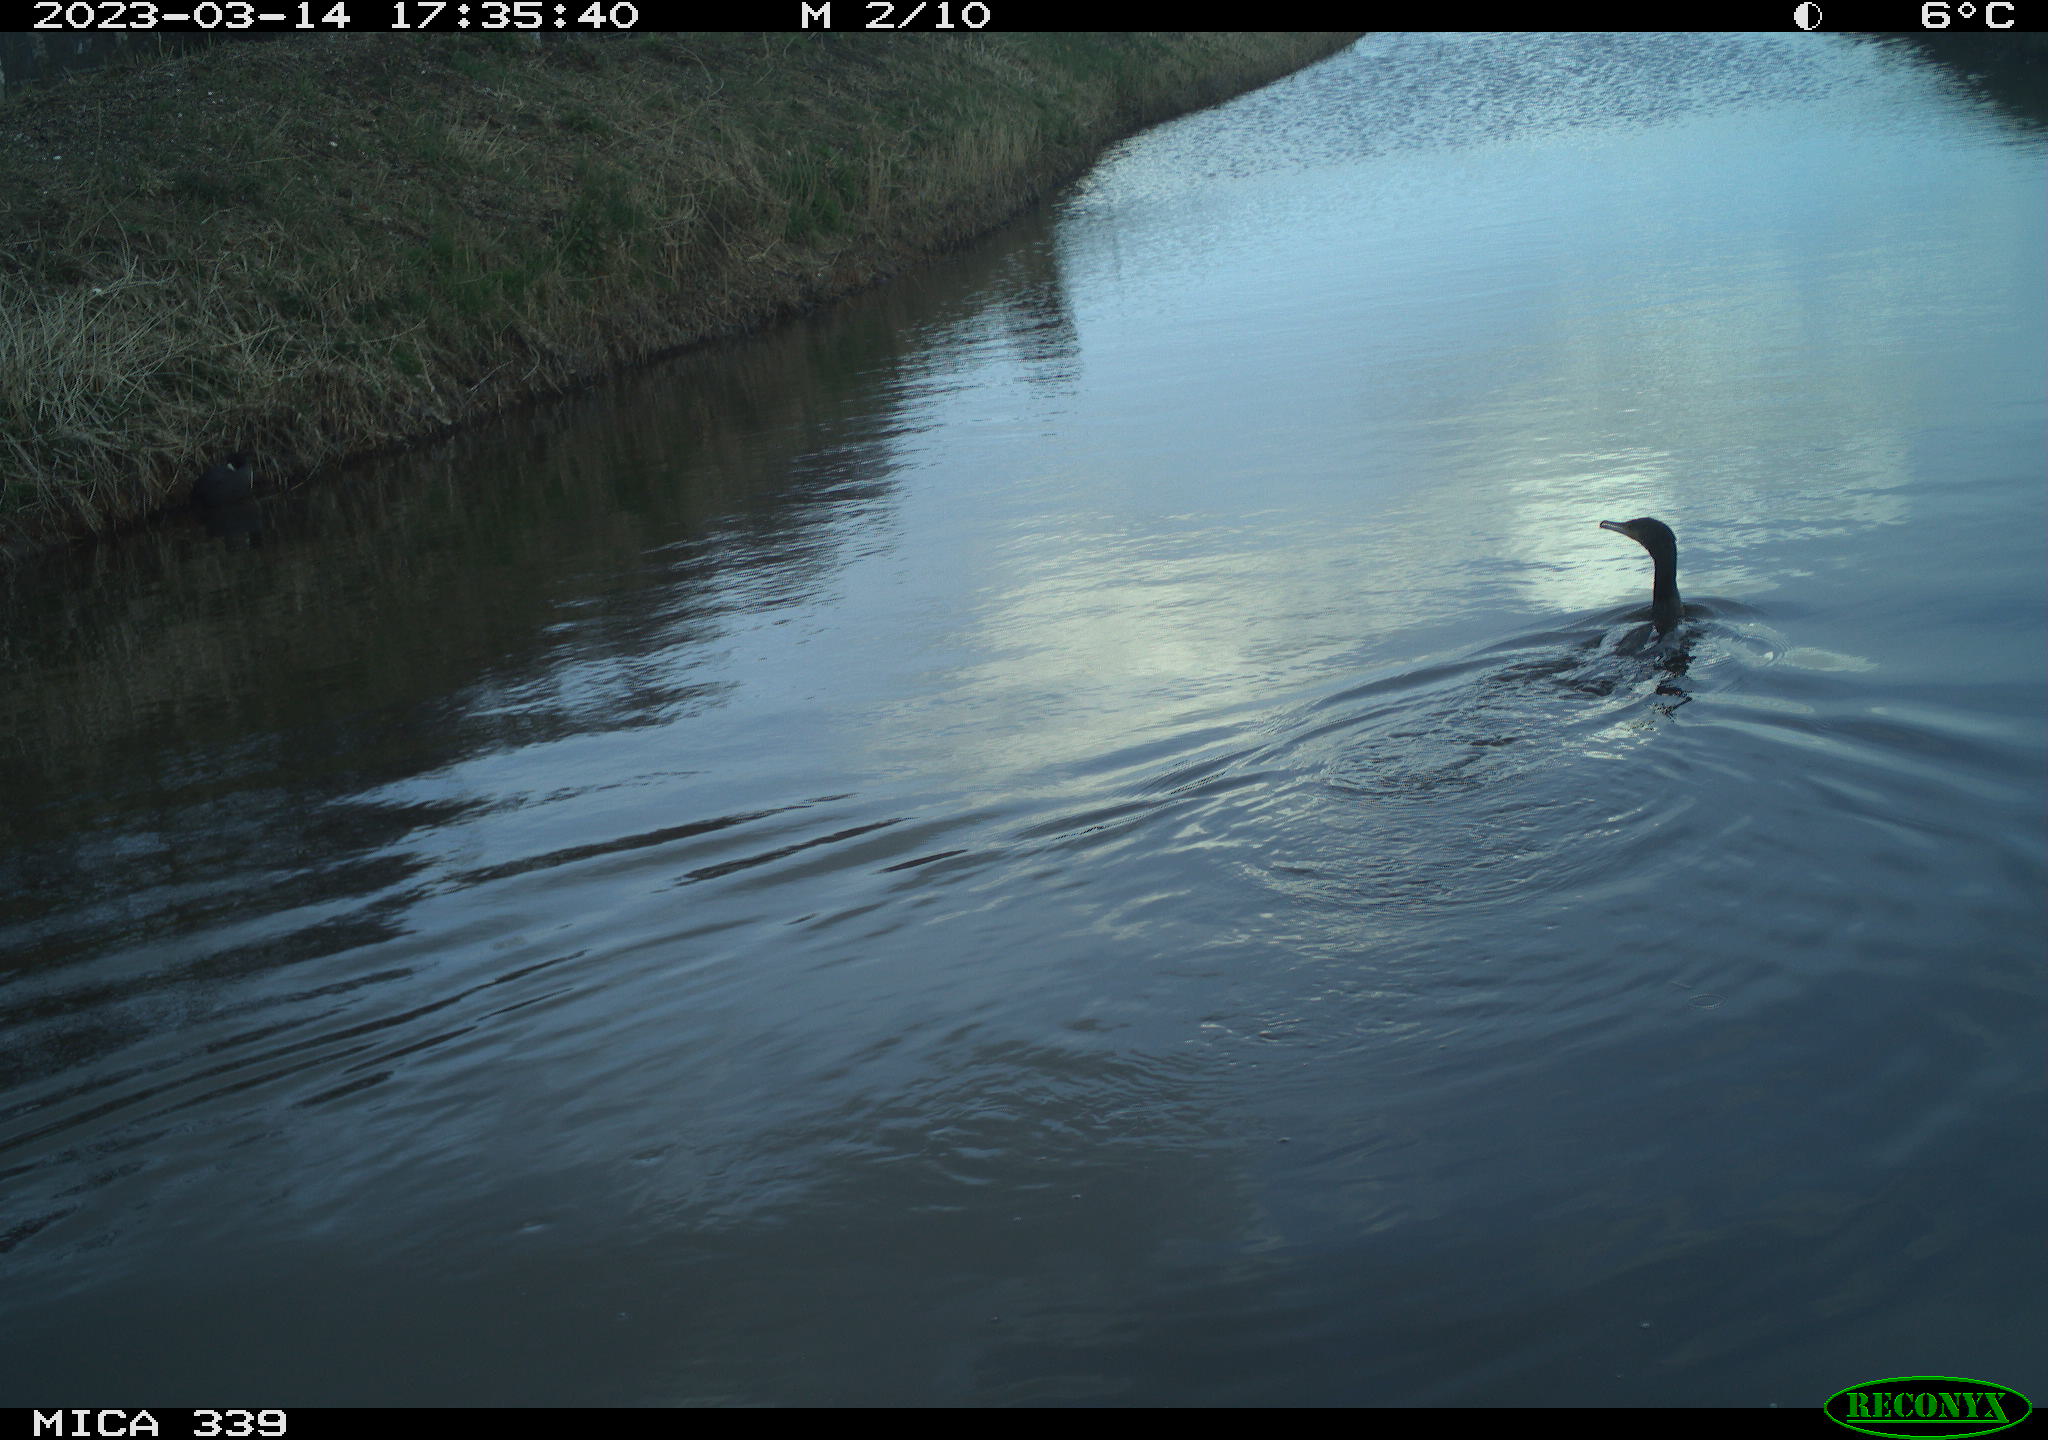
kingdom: Animalia
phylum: Chordata
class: Aves
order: Suliformes
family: Phalacrocoracidae
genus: Phalacrocorax
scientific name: Phalacrocorax carbo
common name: Great cormorant
